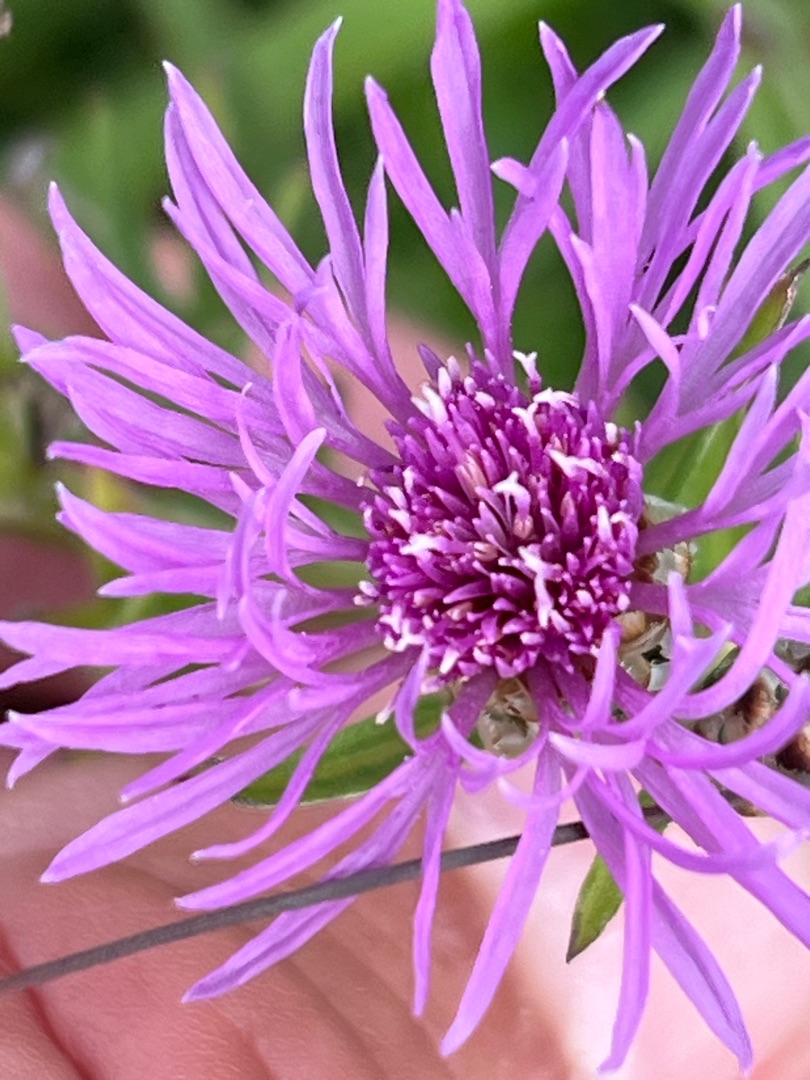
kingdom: Plantae
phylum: Tracheophyta
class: Magnoliopsida
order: Asterales
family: Asteraceae
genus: Centaurea
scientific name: Centaurea jacea
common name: Almindelig knopurt
